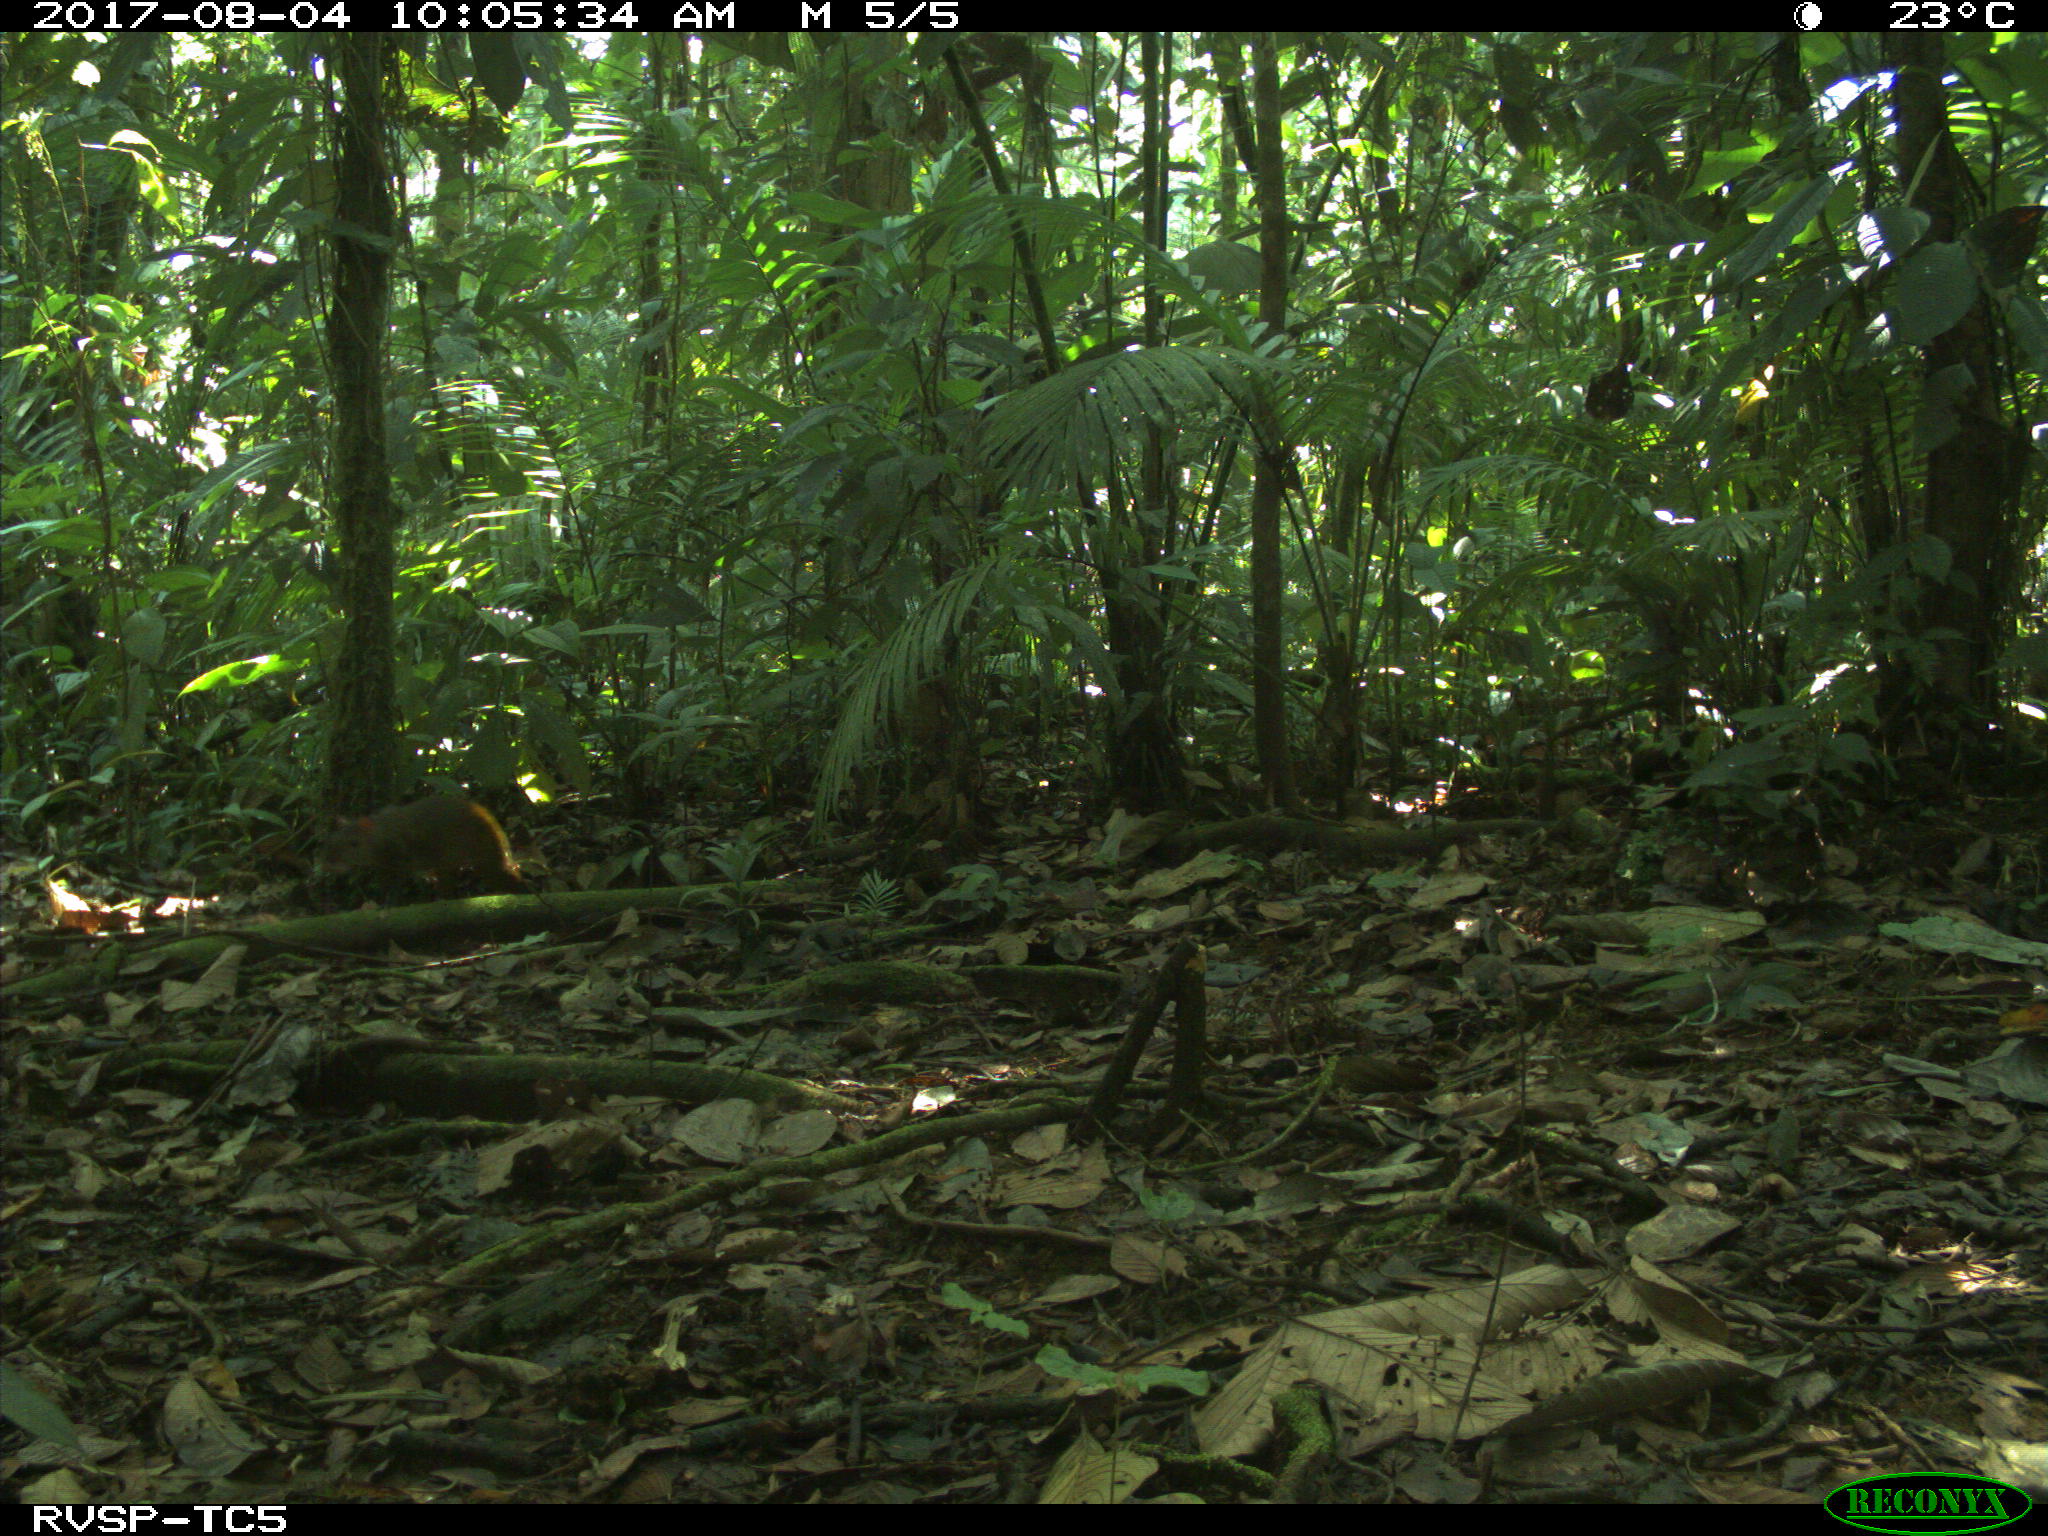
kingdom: Animalia
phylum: Chordata
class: Mammalia
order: Rodentia
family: Dasyproctidae
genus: Dasyprocta
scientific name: Dasyprocta punctata
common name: Central american agouti
